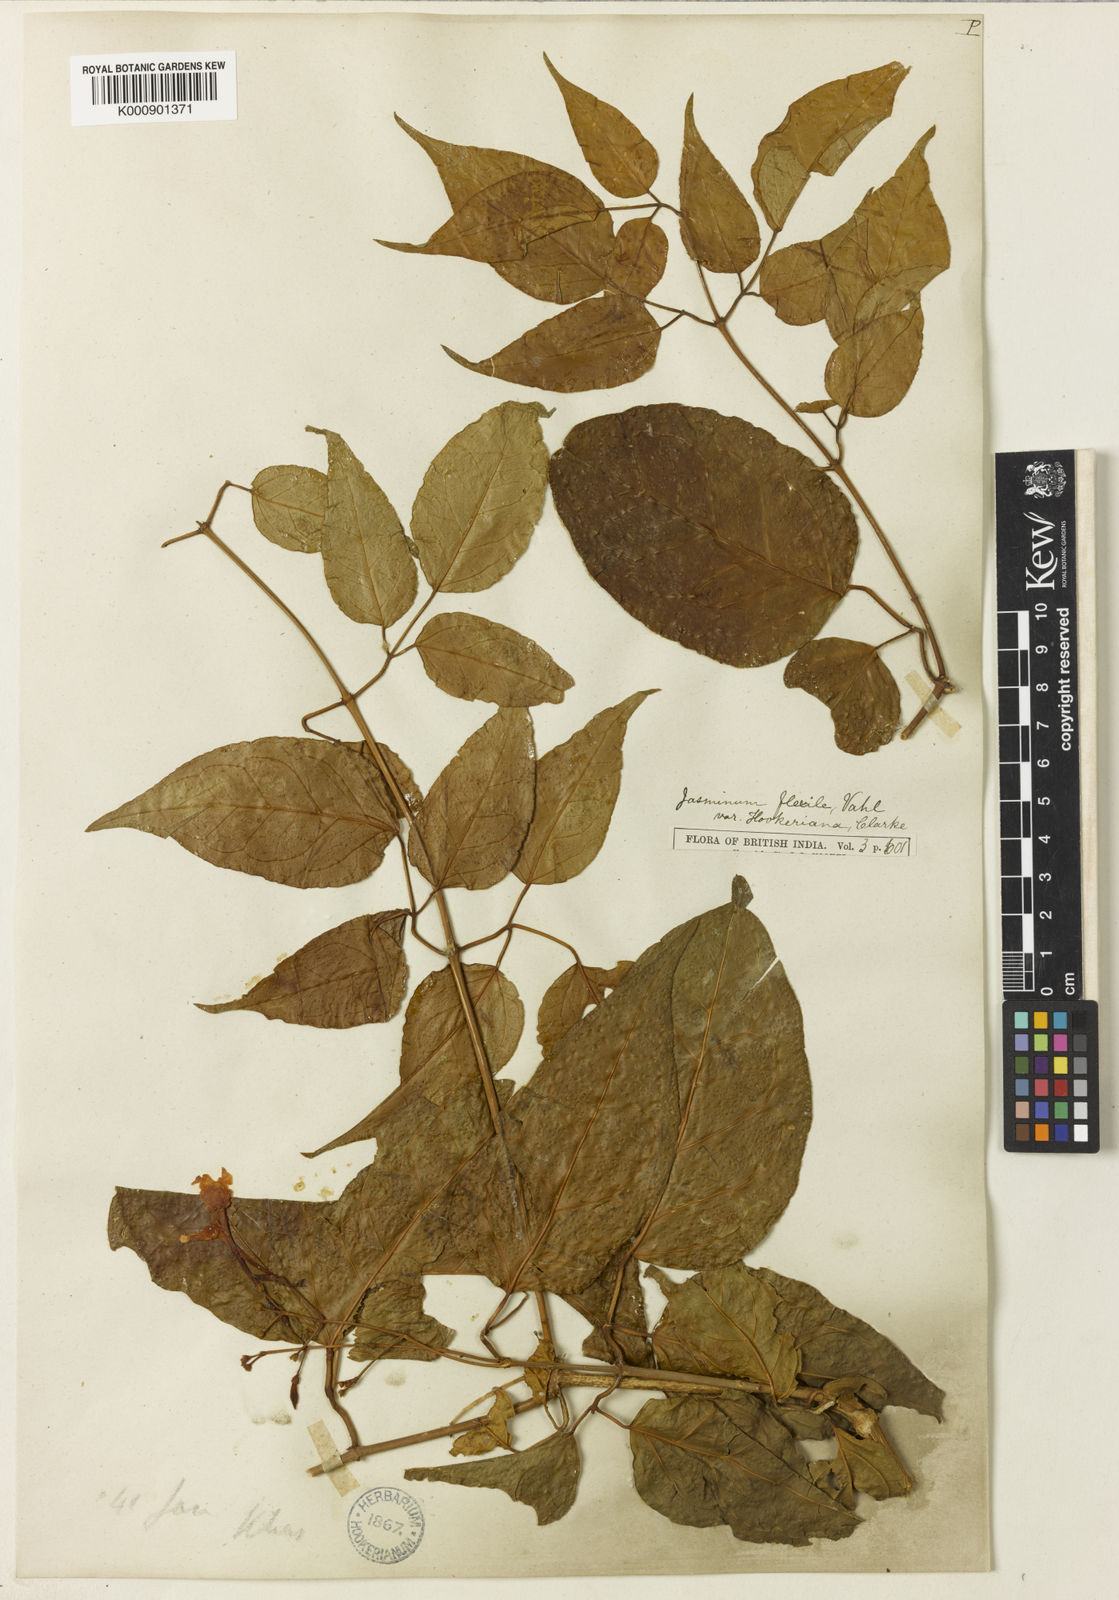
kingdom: Plantae
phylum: Tracheophyta
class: Magnoliopsida
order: Lamiales
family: Oleaceae
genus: Jasminum
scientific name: Jasminum flexile
